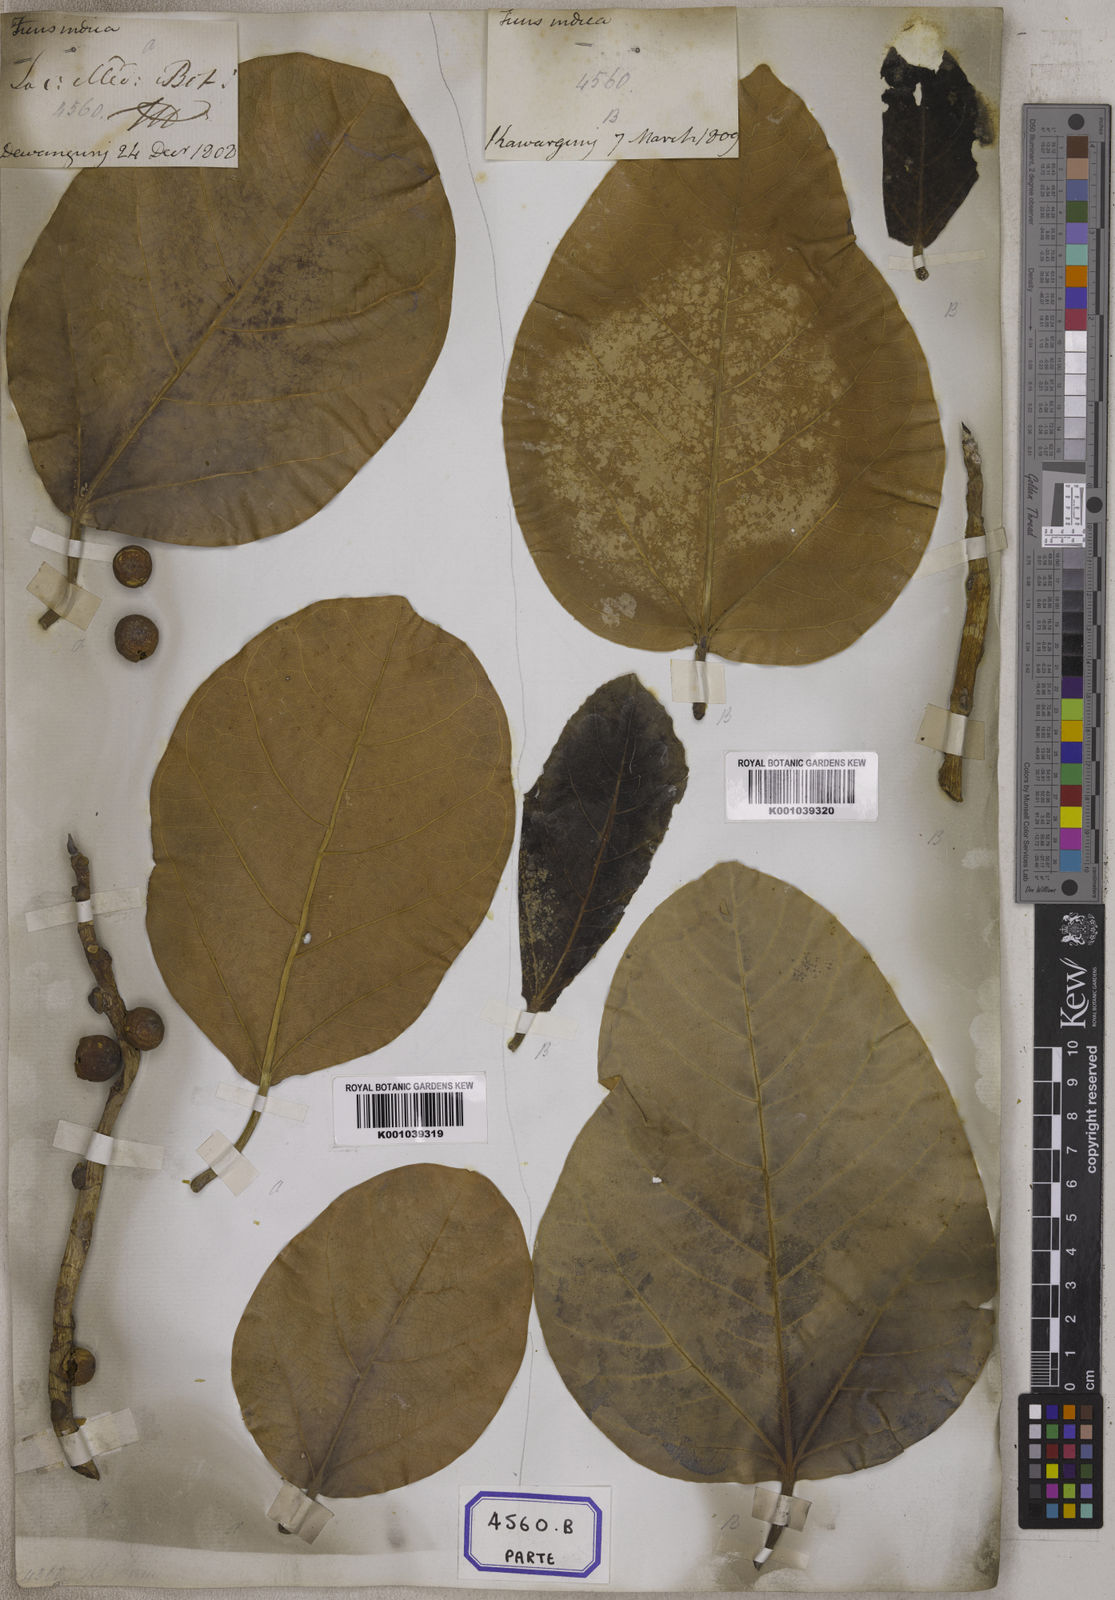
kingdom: Plantae
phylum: Tracheophyta
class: Magnoliopsida
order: Rosales
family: Moraceae
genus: Ficus
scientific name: Ficus
